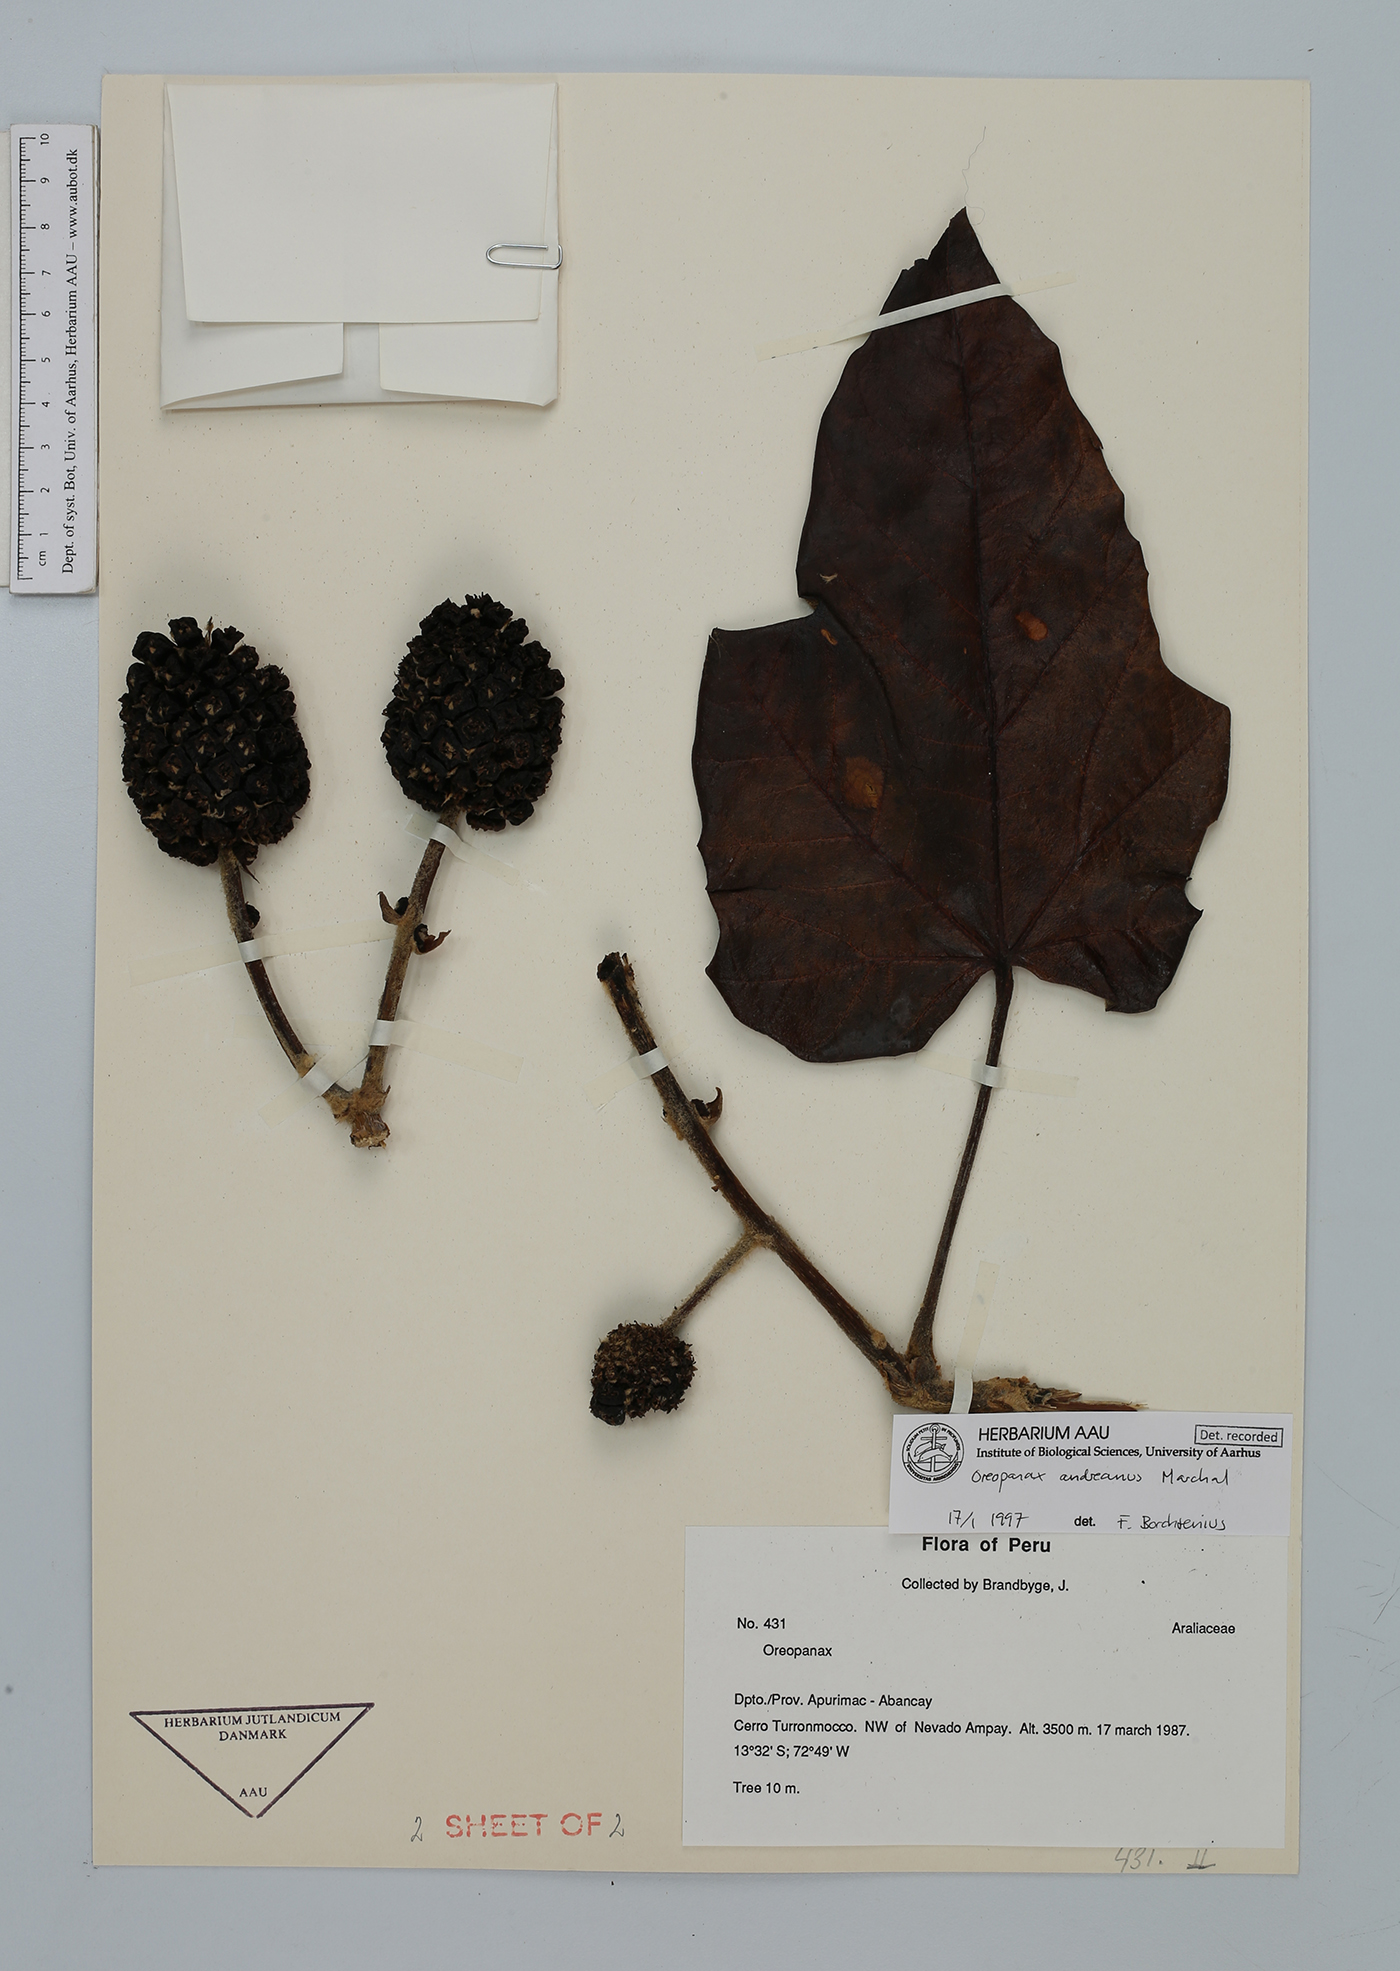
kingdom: Plantae
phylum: Tracheophyta
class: Magnoliopsida
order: Apiales
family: Araliaceae
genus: Oreopanax
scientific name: Oreopanax andreanus
